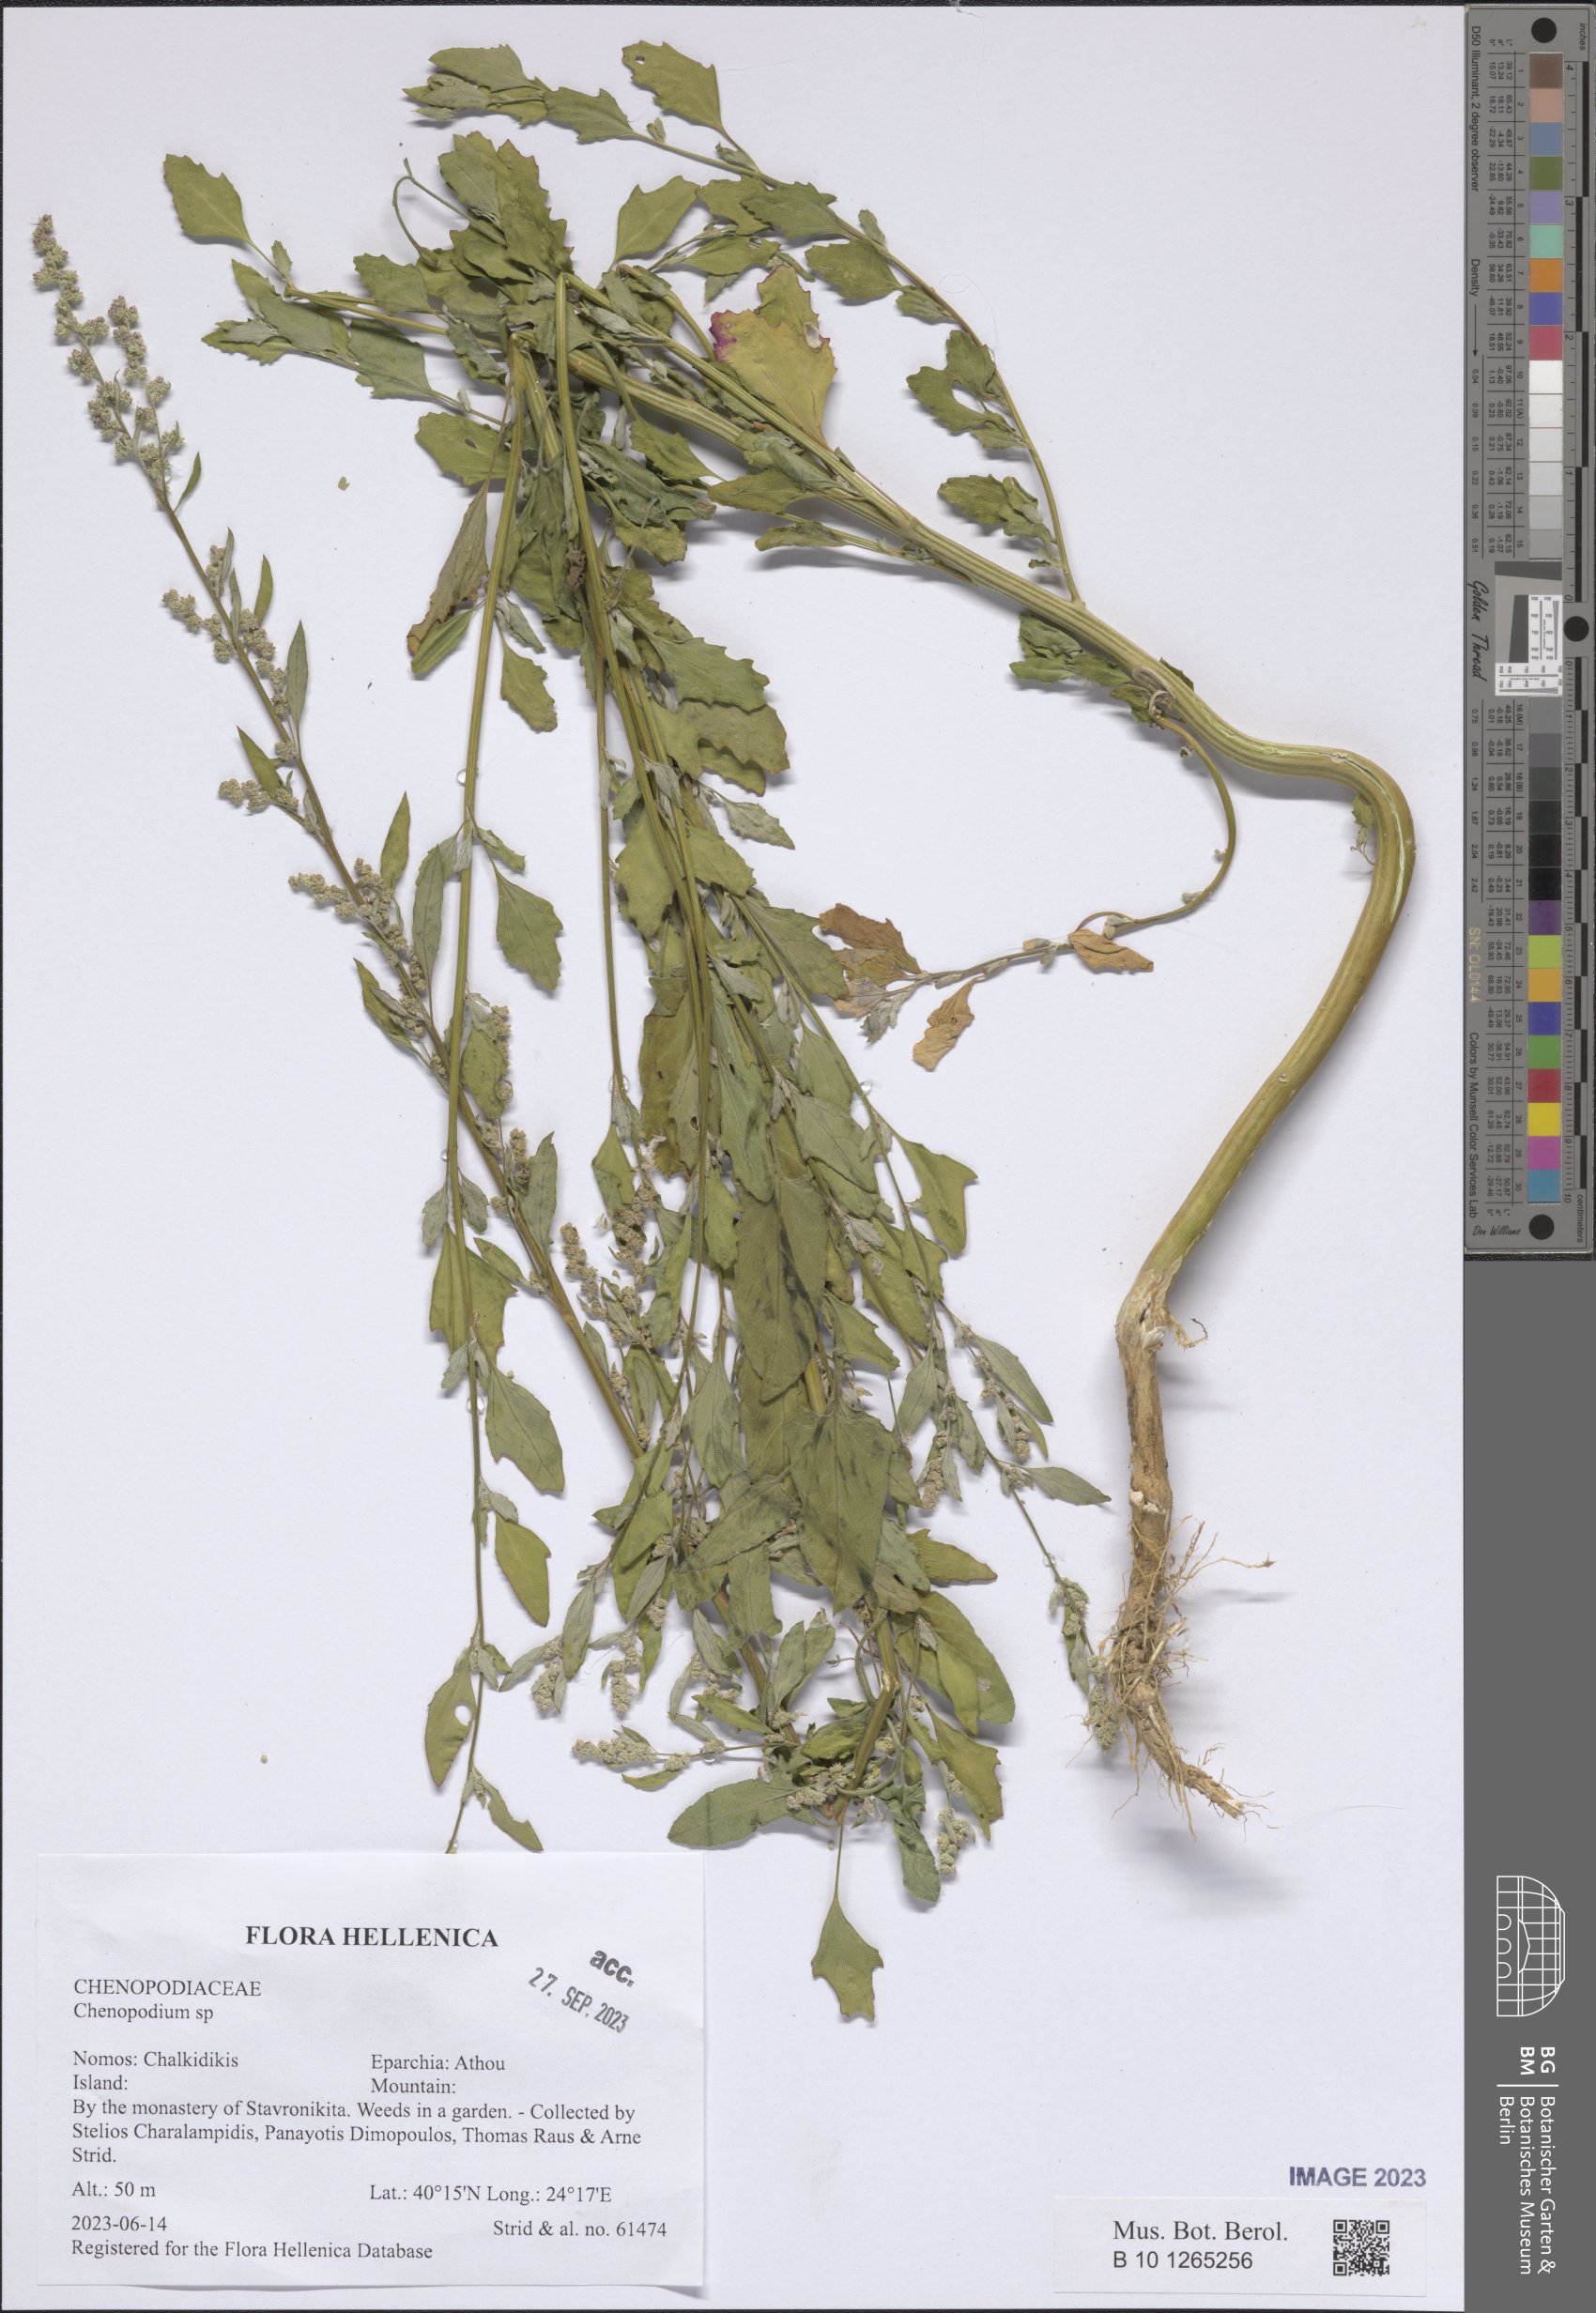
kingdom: Plantae
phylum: Tracheophyta
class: Magnoliopsida
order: Caryophyllales
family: Amaranthaceae
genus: Chenopodium
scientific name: Chenopodium
